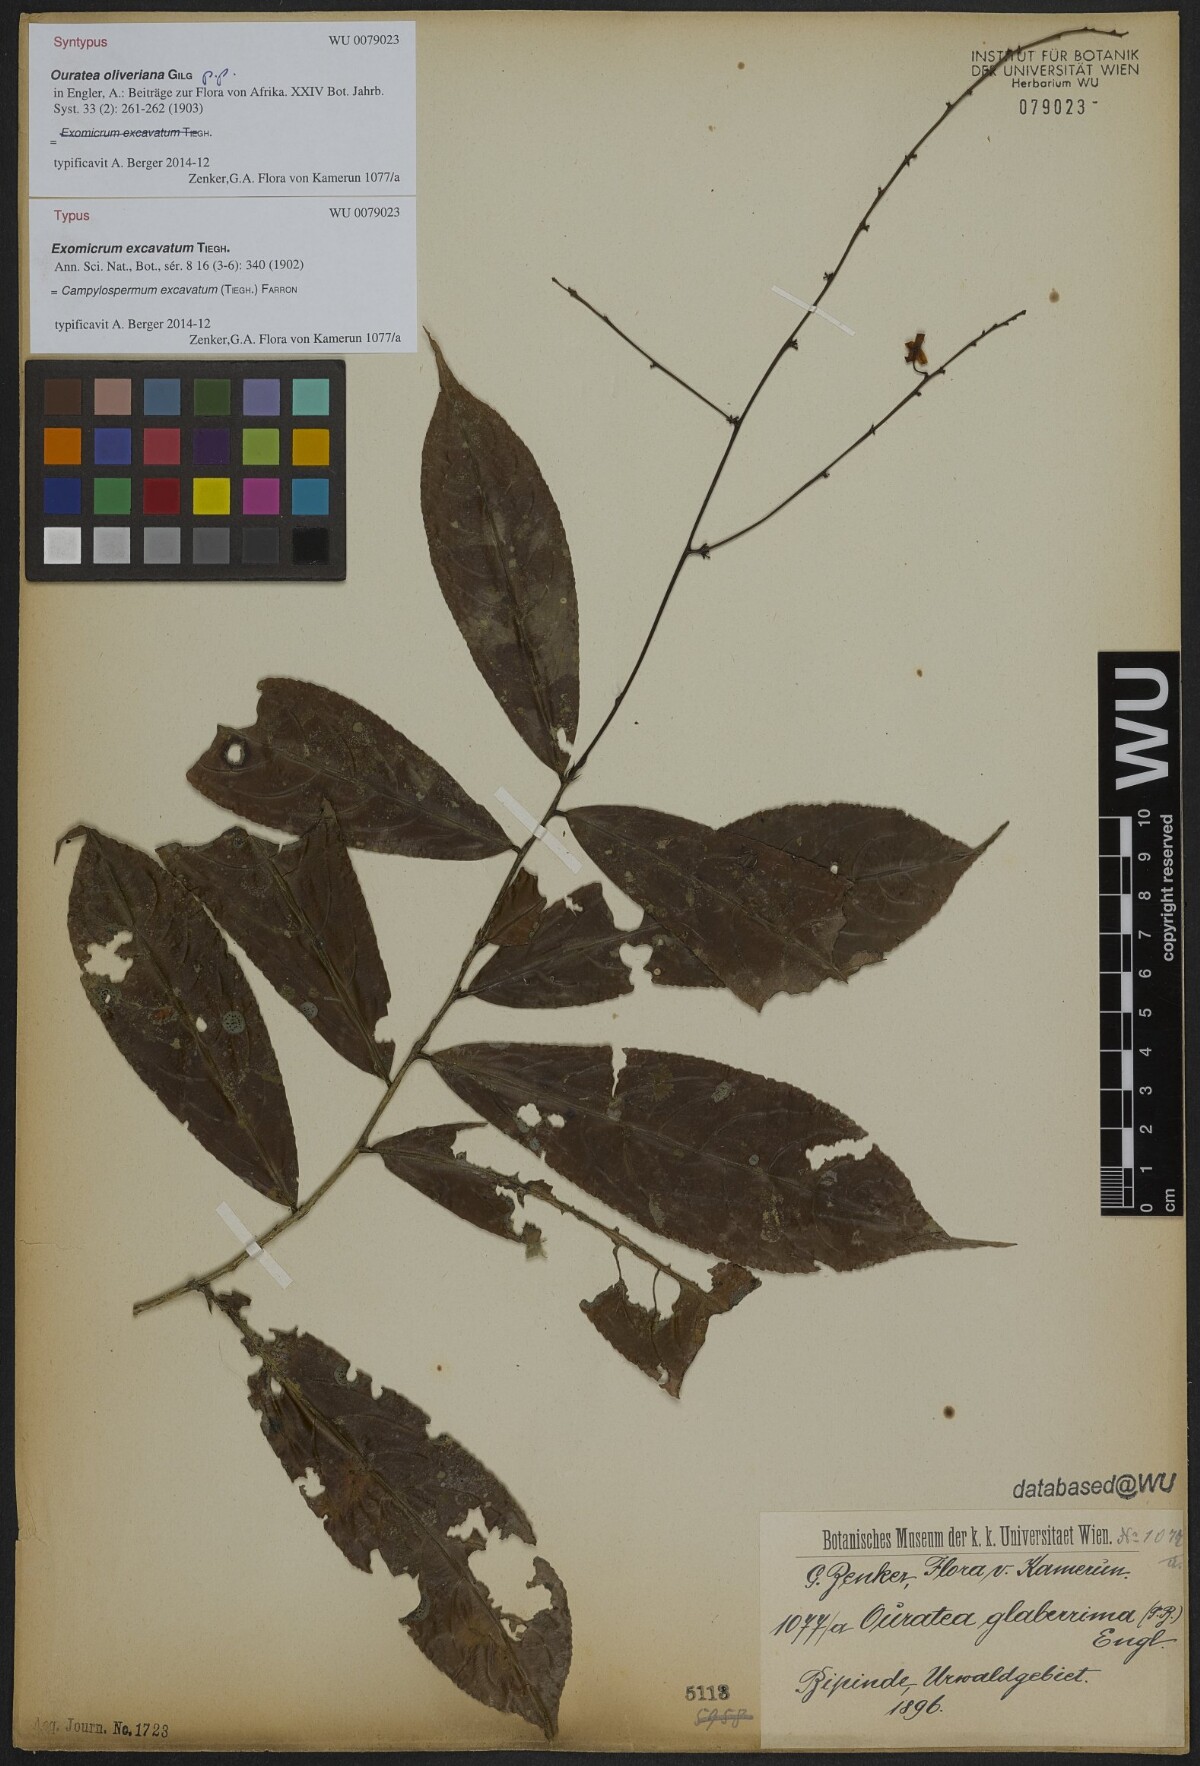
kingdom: Plantae
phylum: Tracheophyta
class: Magnoliopsida
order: Malpighiales
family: Ochnaceae
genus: Campylospermum
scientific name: Campylospermum excavatum
